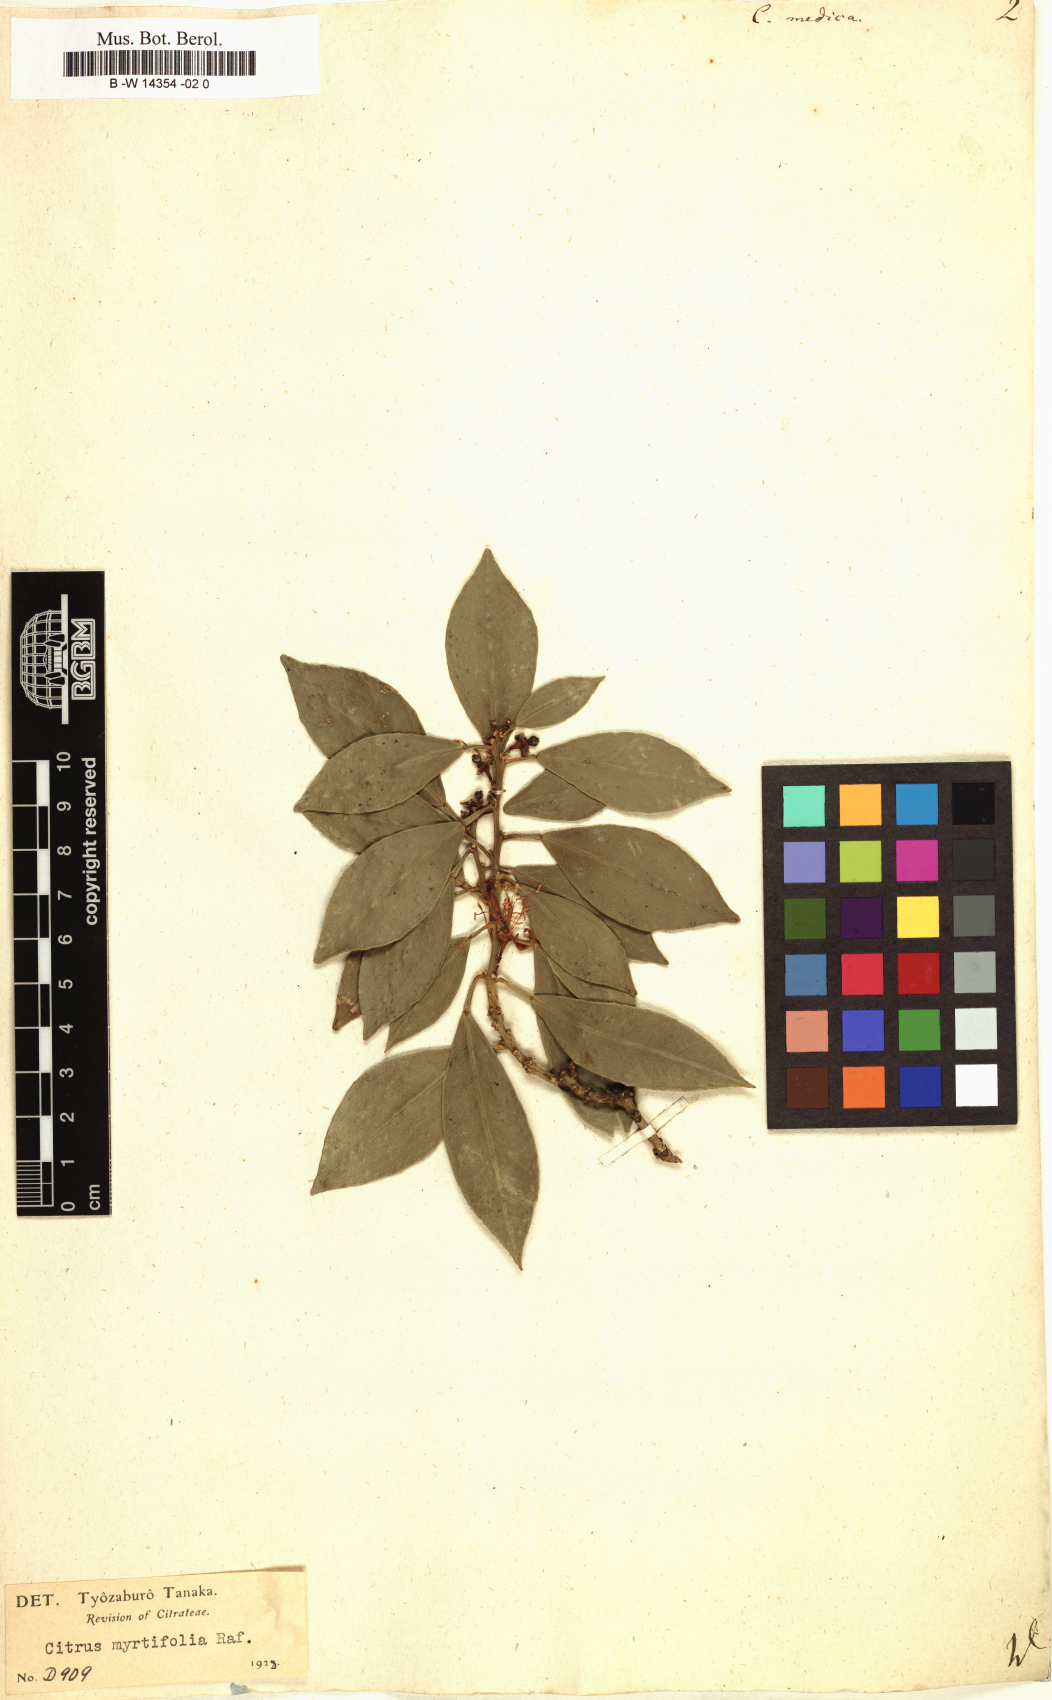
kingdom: Plantae
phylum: Tracheophyta
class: Magnoliopsida
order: Sapindales
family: Rutaceae
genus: Citrus
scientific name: Citrus medica
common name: Citron
